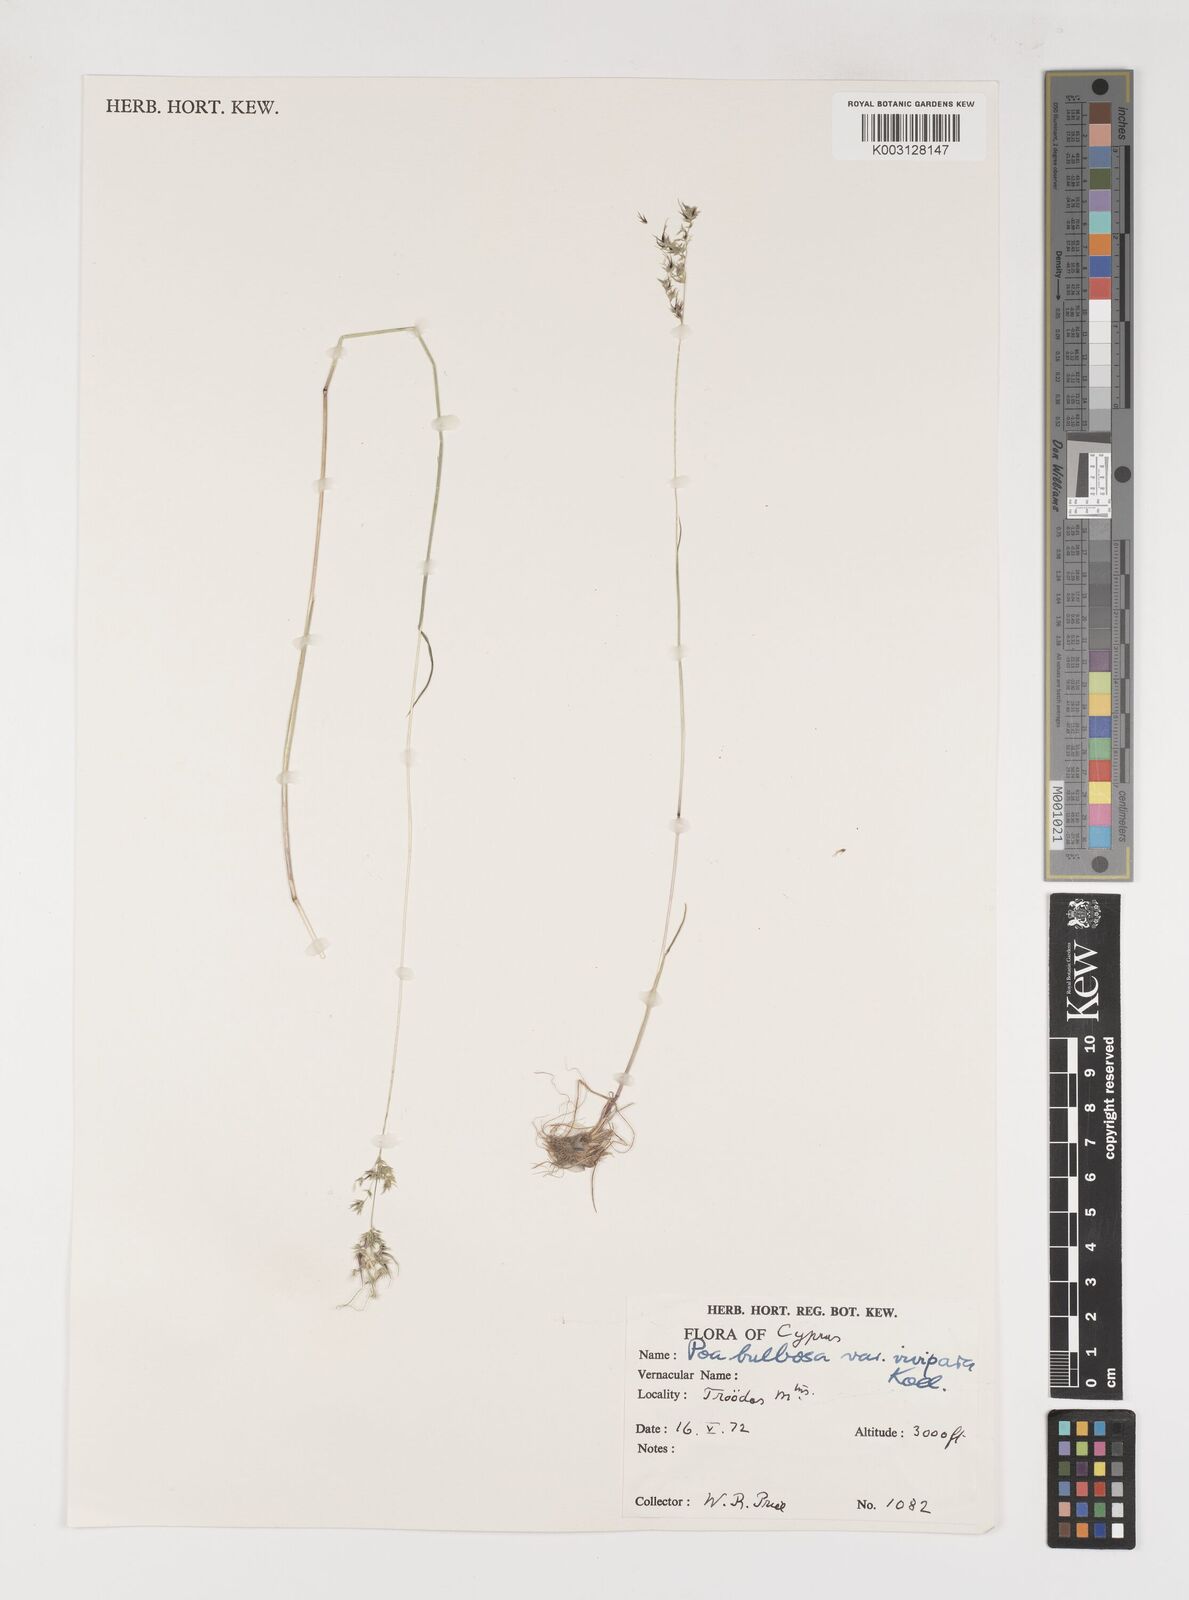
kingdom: Plantae
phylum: Tracheophyta
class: Liliopsida
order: Poales
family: Poaceae
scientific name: Poaceae
